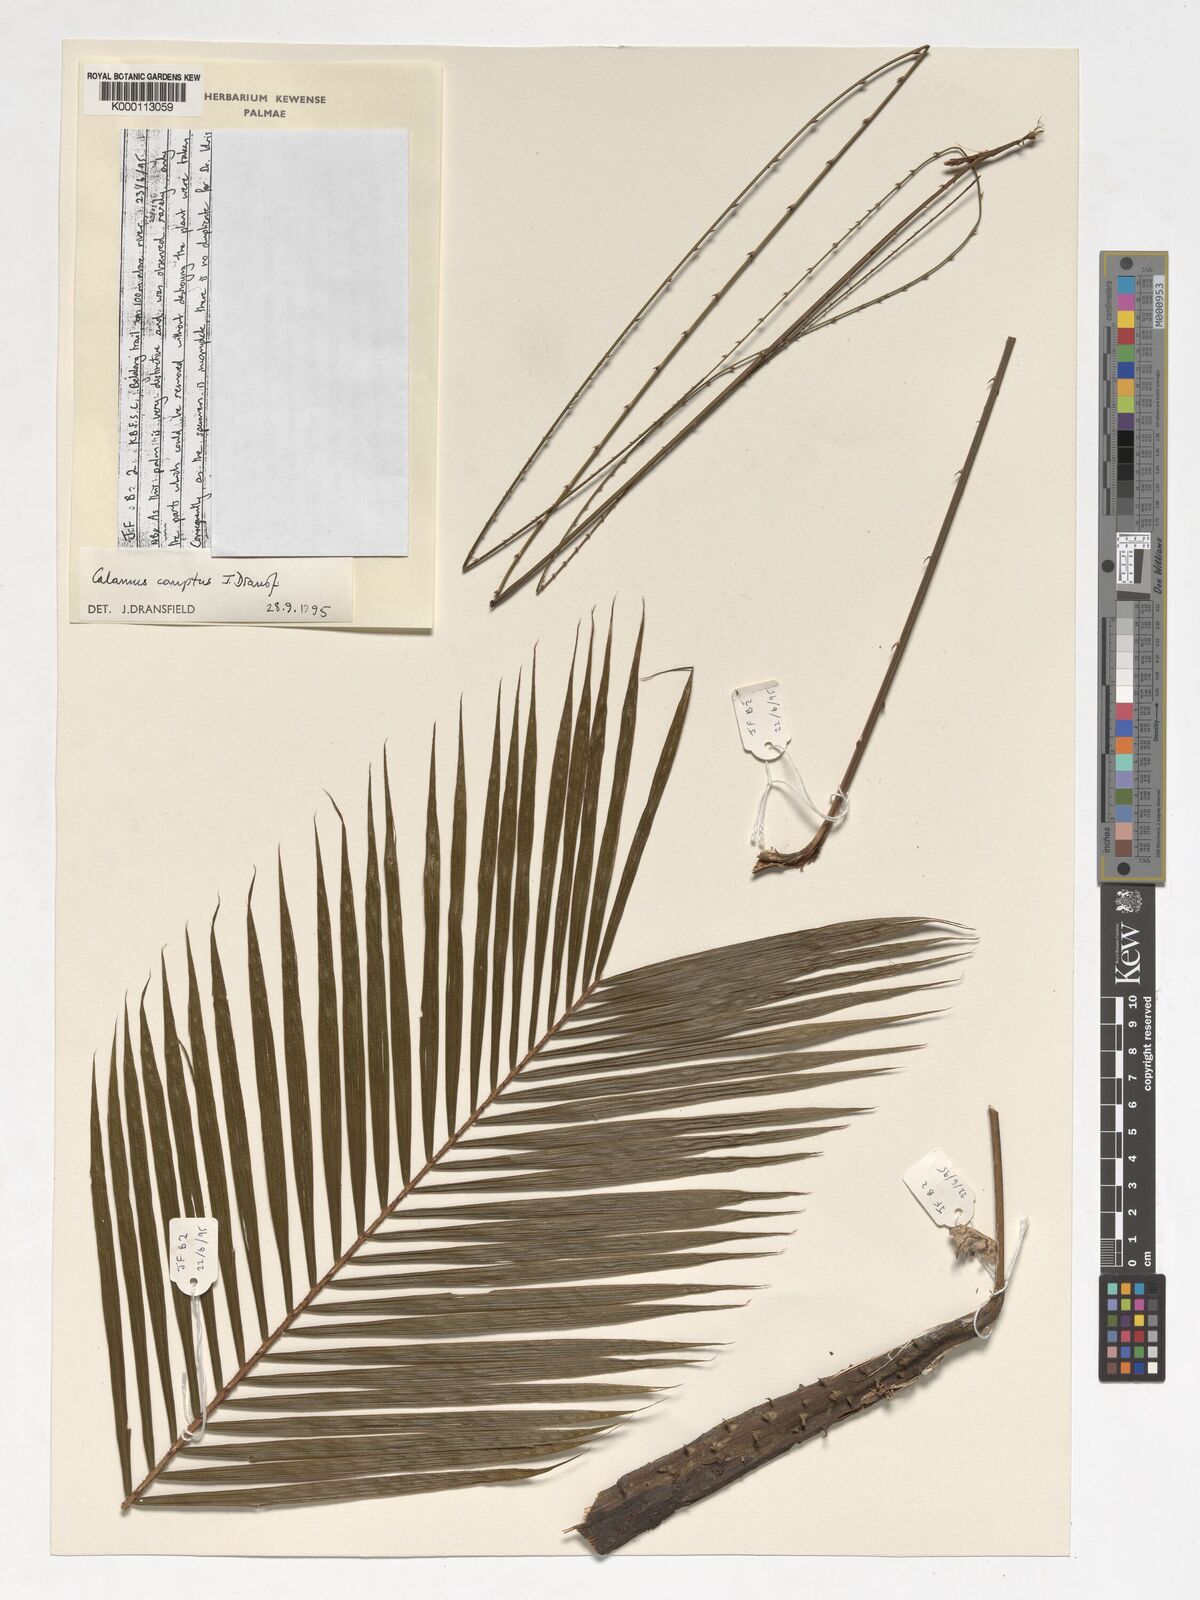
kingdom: Plantae
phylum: Tracheophyta
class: Liliopsida
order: Arecales
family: Arecaceae
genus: Calamus
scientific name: Calamus comptus
